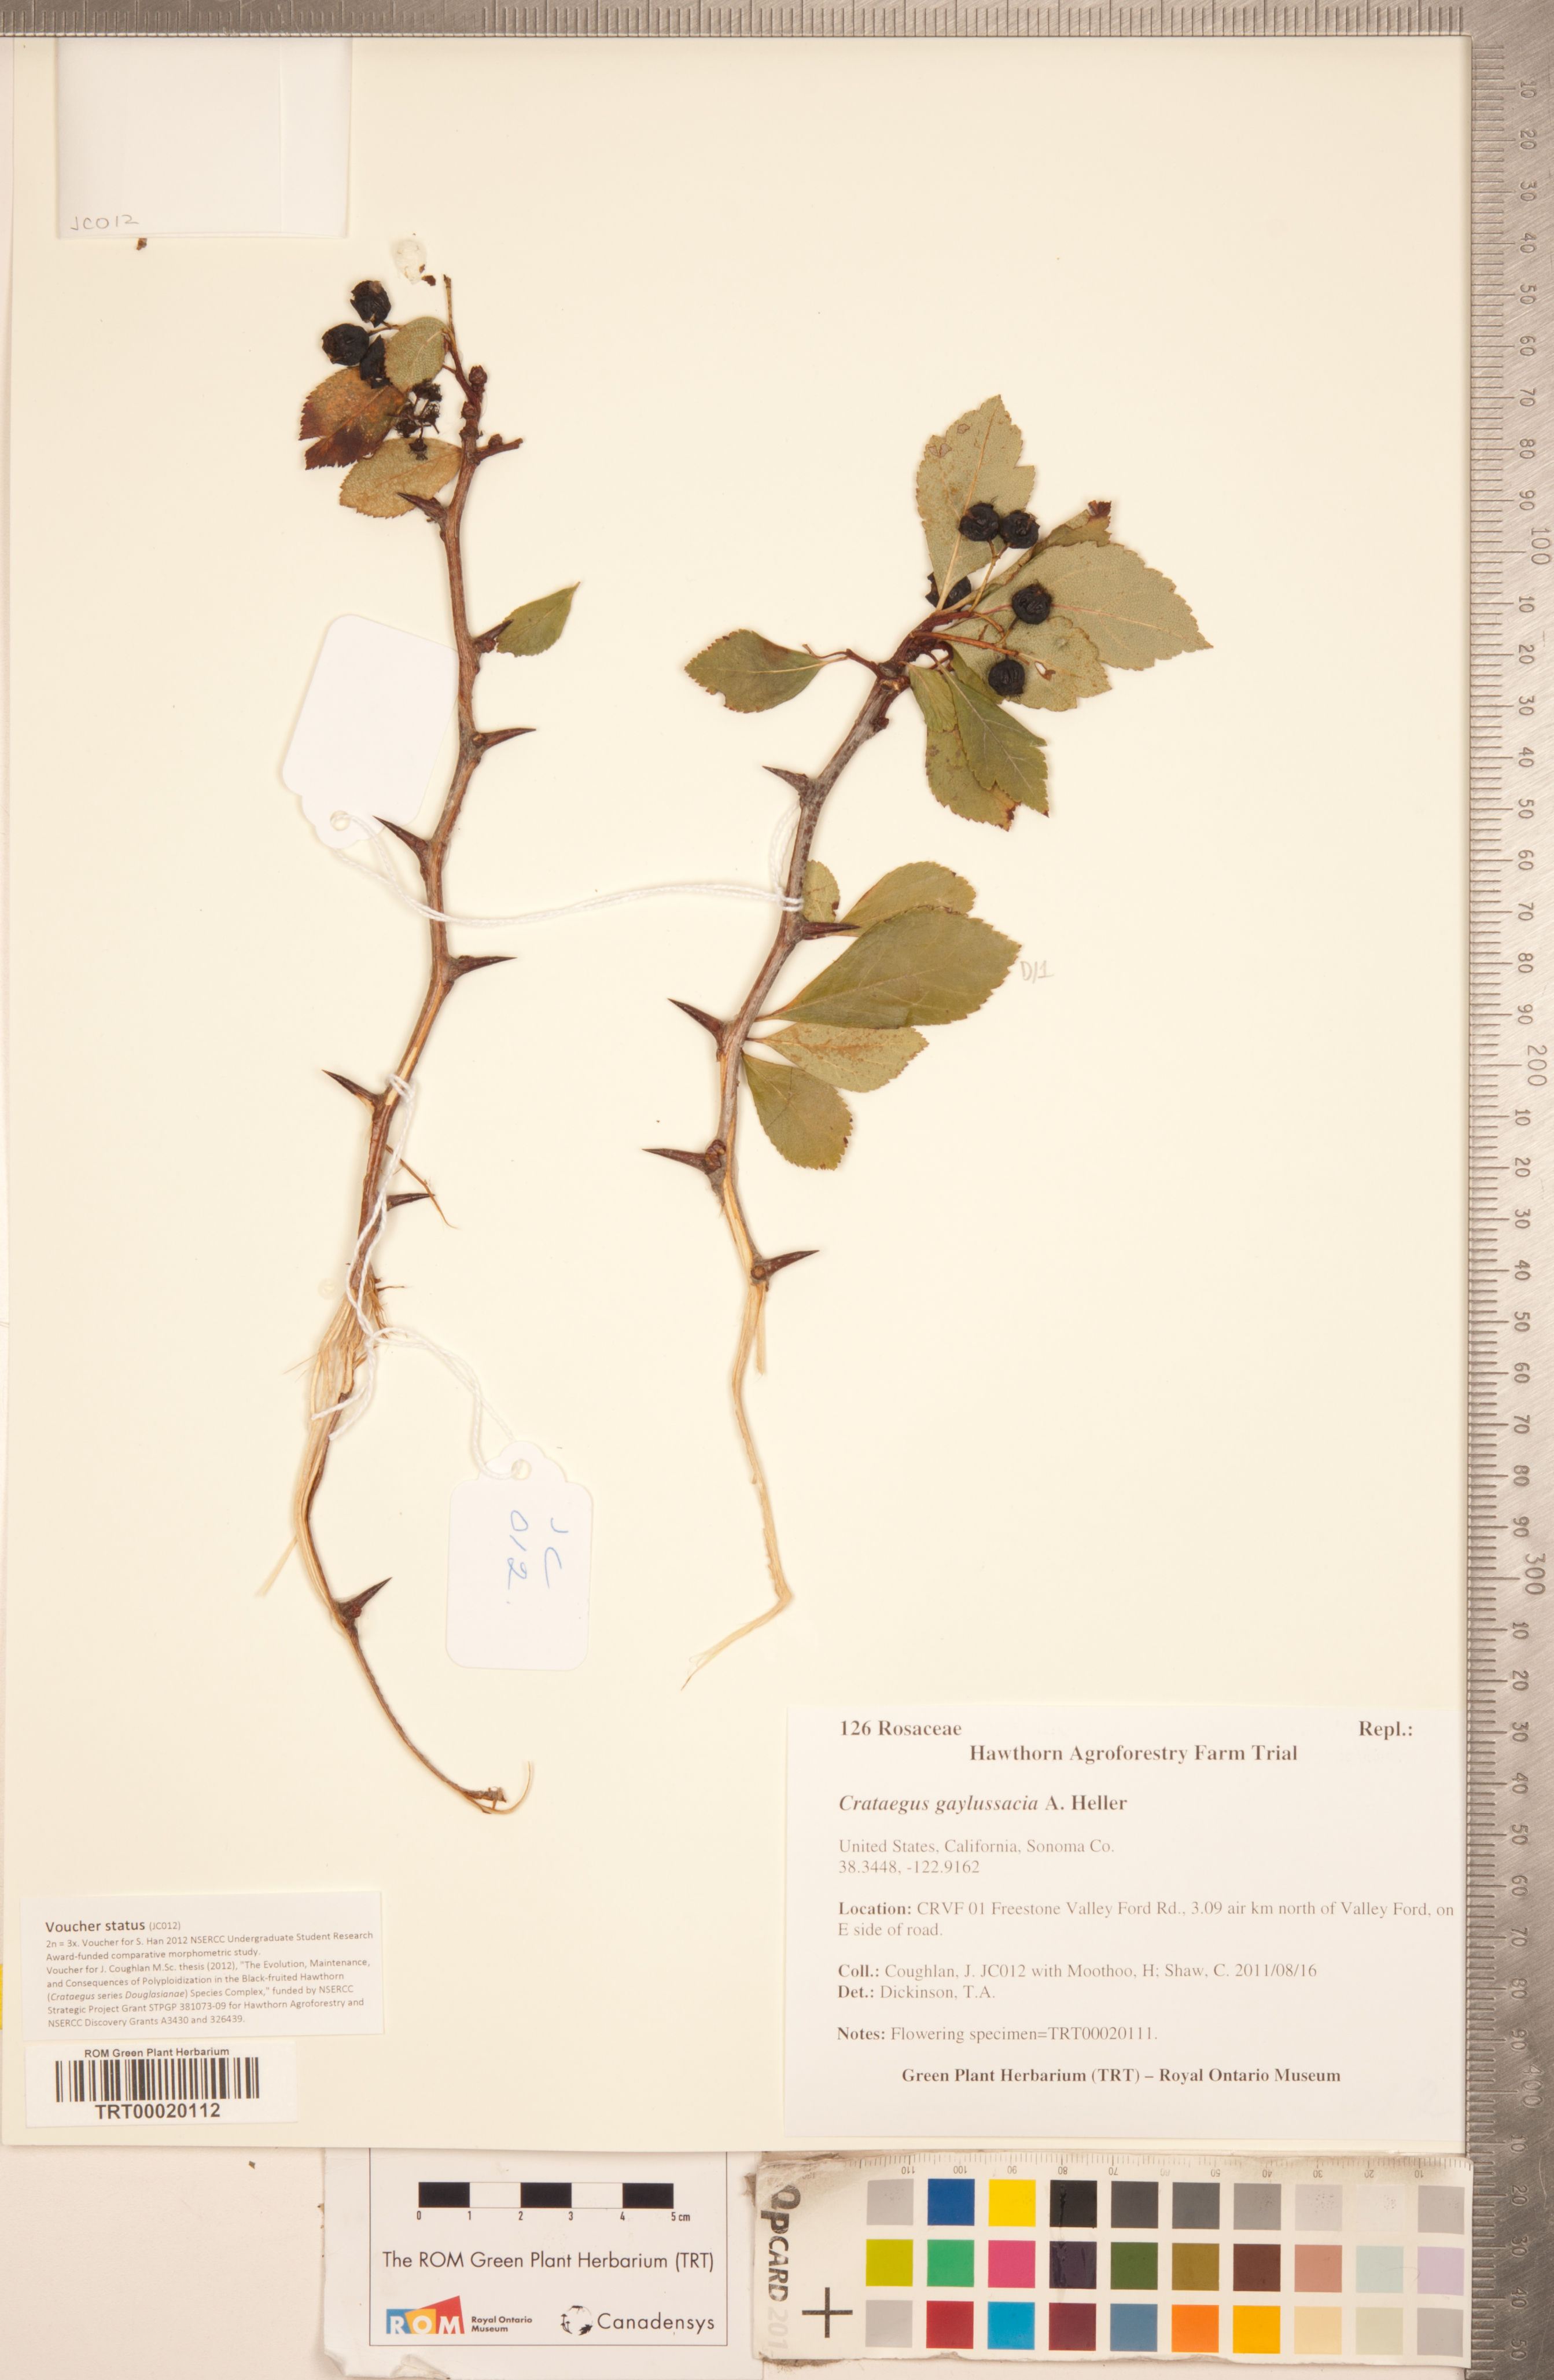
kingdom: Plantae
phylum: Tracheophyta
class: Magnoliopsida
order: Rosales
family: Rosaceae
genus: Crataegus
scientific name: Crataegus gaylussacia
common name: Huckleberry hawthorn
